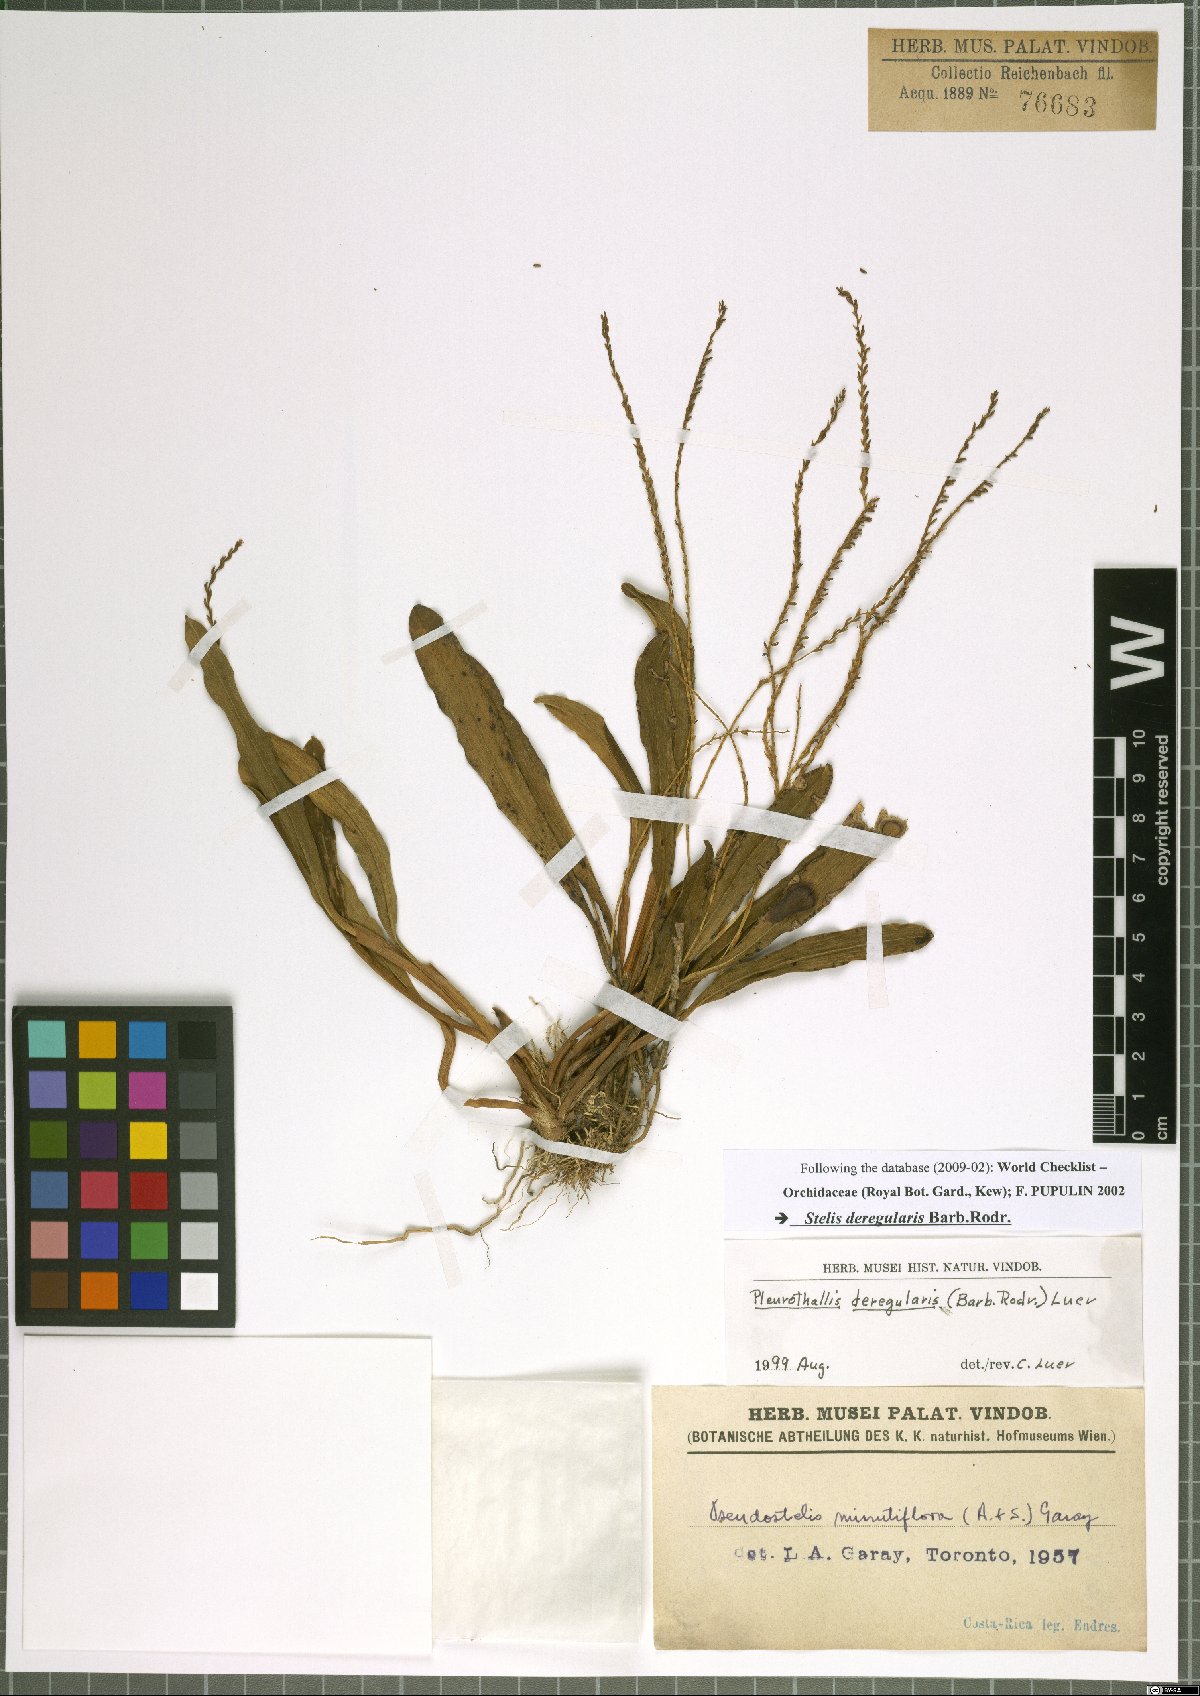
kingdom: Plantae
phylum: Tracheophyta
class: Liliopsida
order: Asparagales
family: Orchidaceae
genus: Stelis
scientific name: Stelis deregularis
